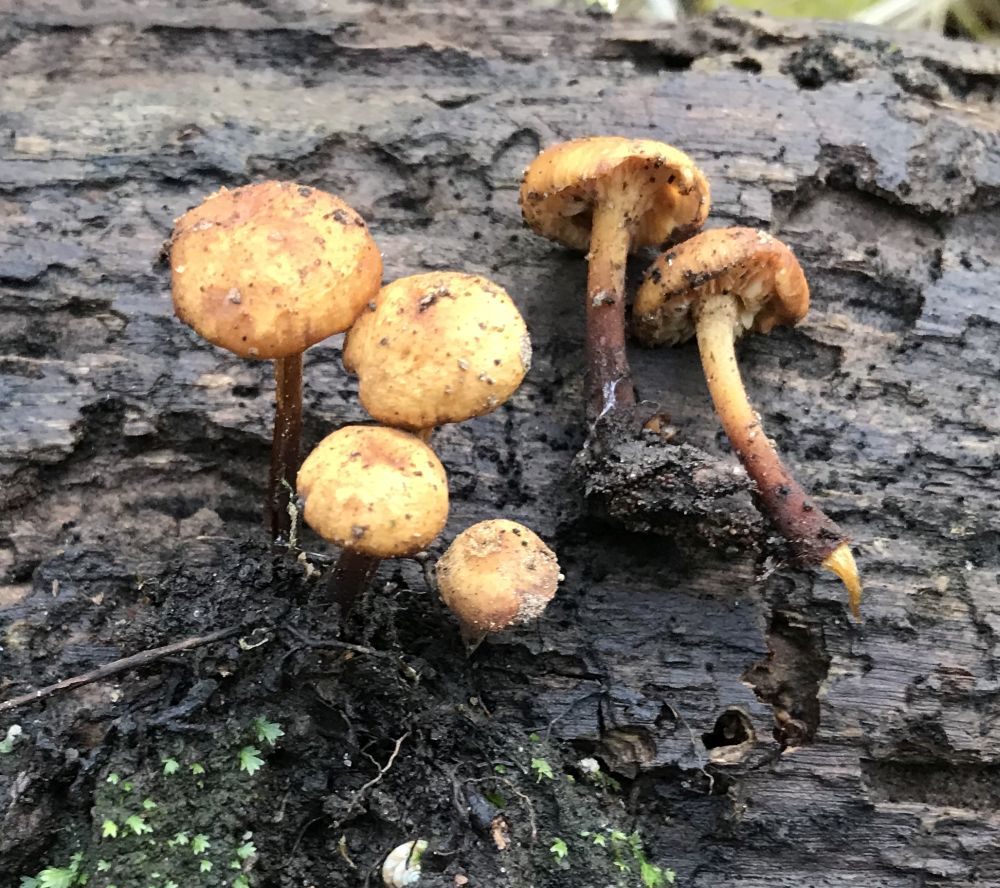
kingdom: Fungi
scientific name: Fungi
